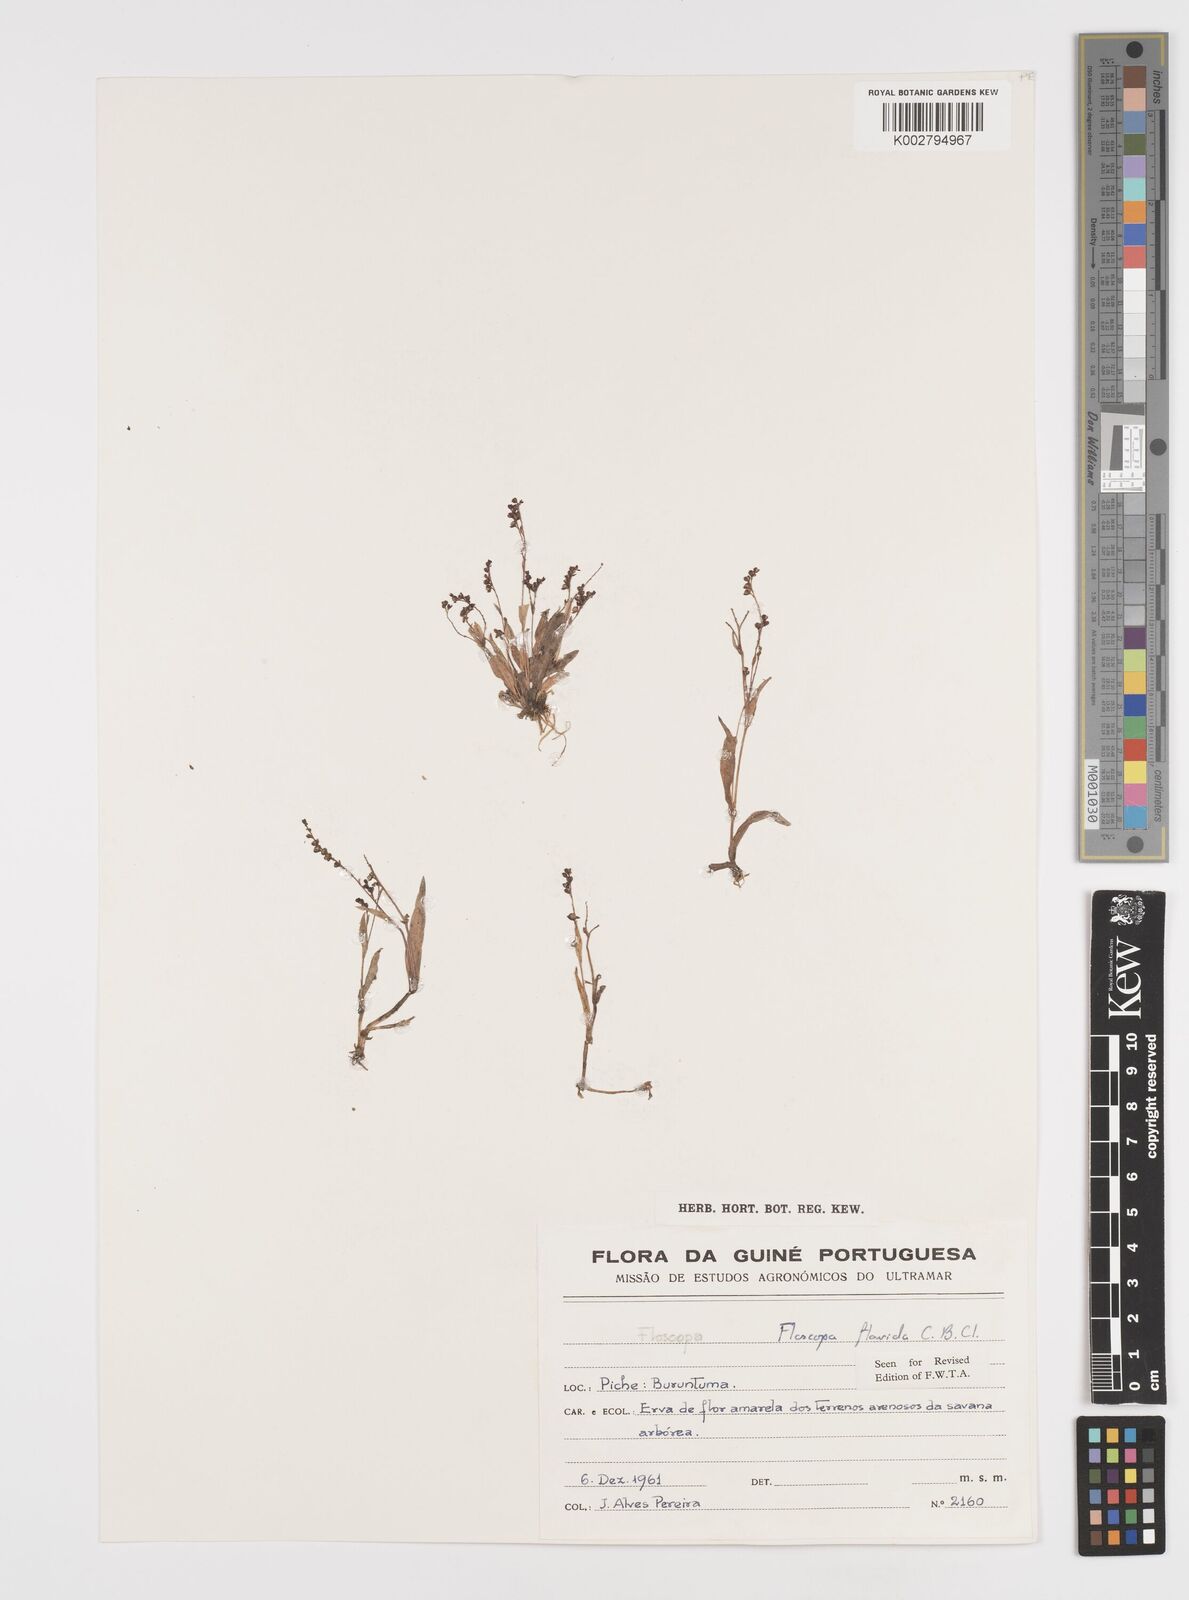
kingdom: Plantae
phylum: Tracheophyta
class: Liliopsida
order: Commelinales
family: Commelinaceae
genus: Floscopa
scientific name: Floscopa flavida
